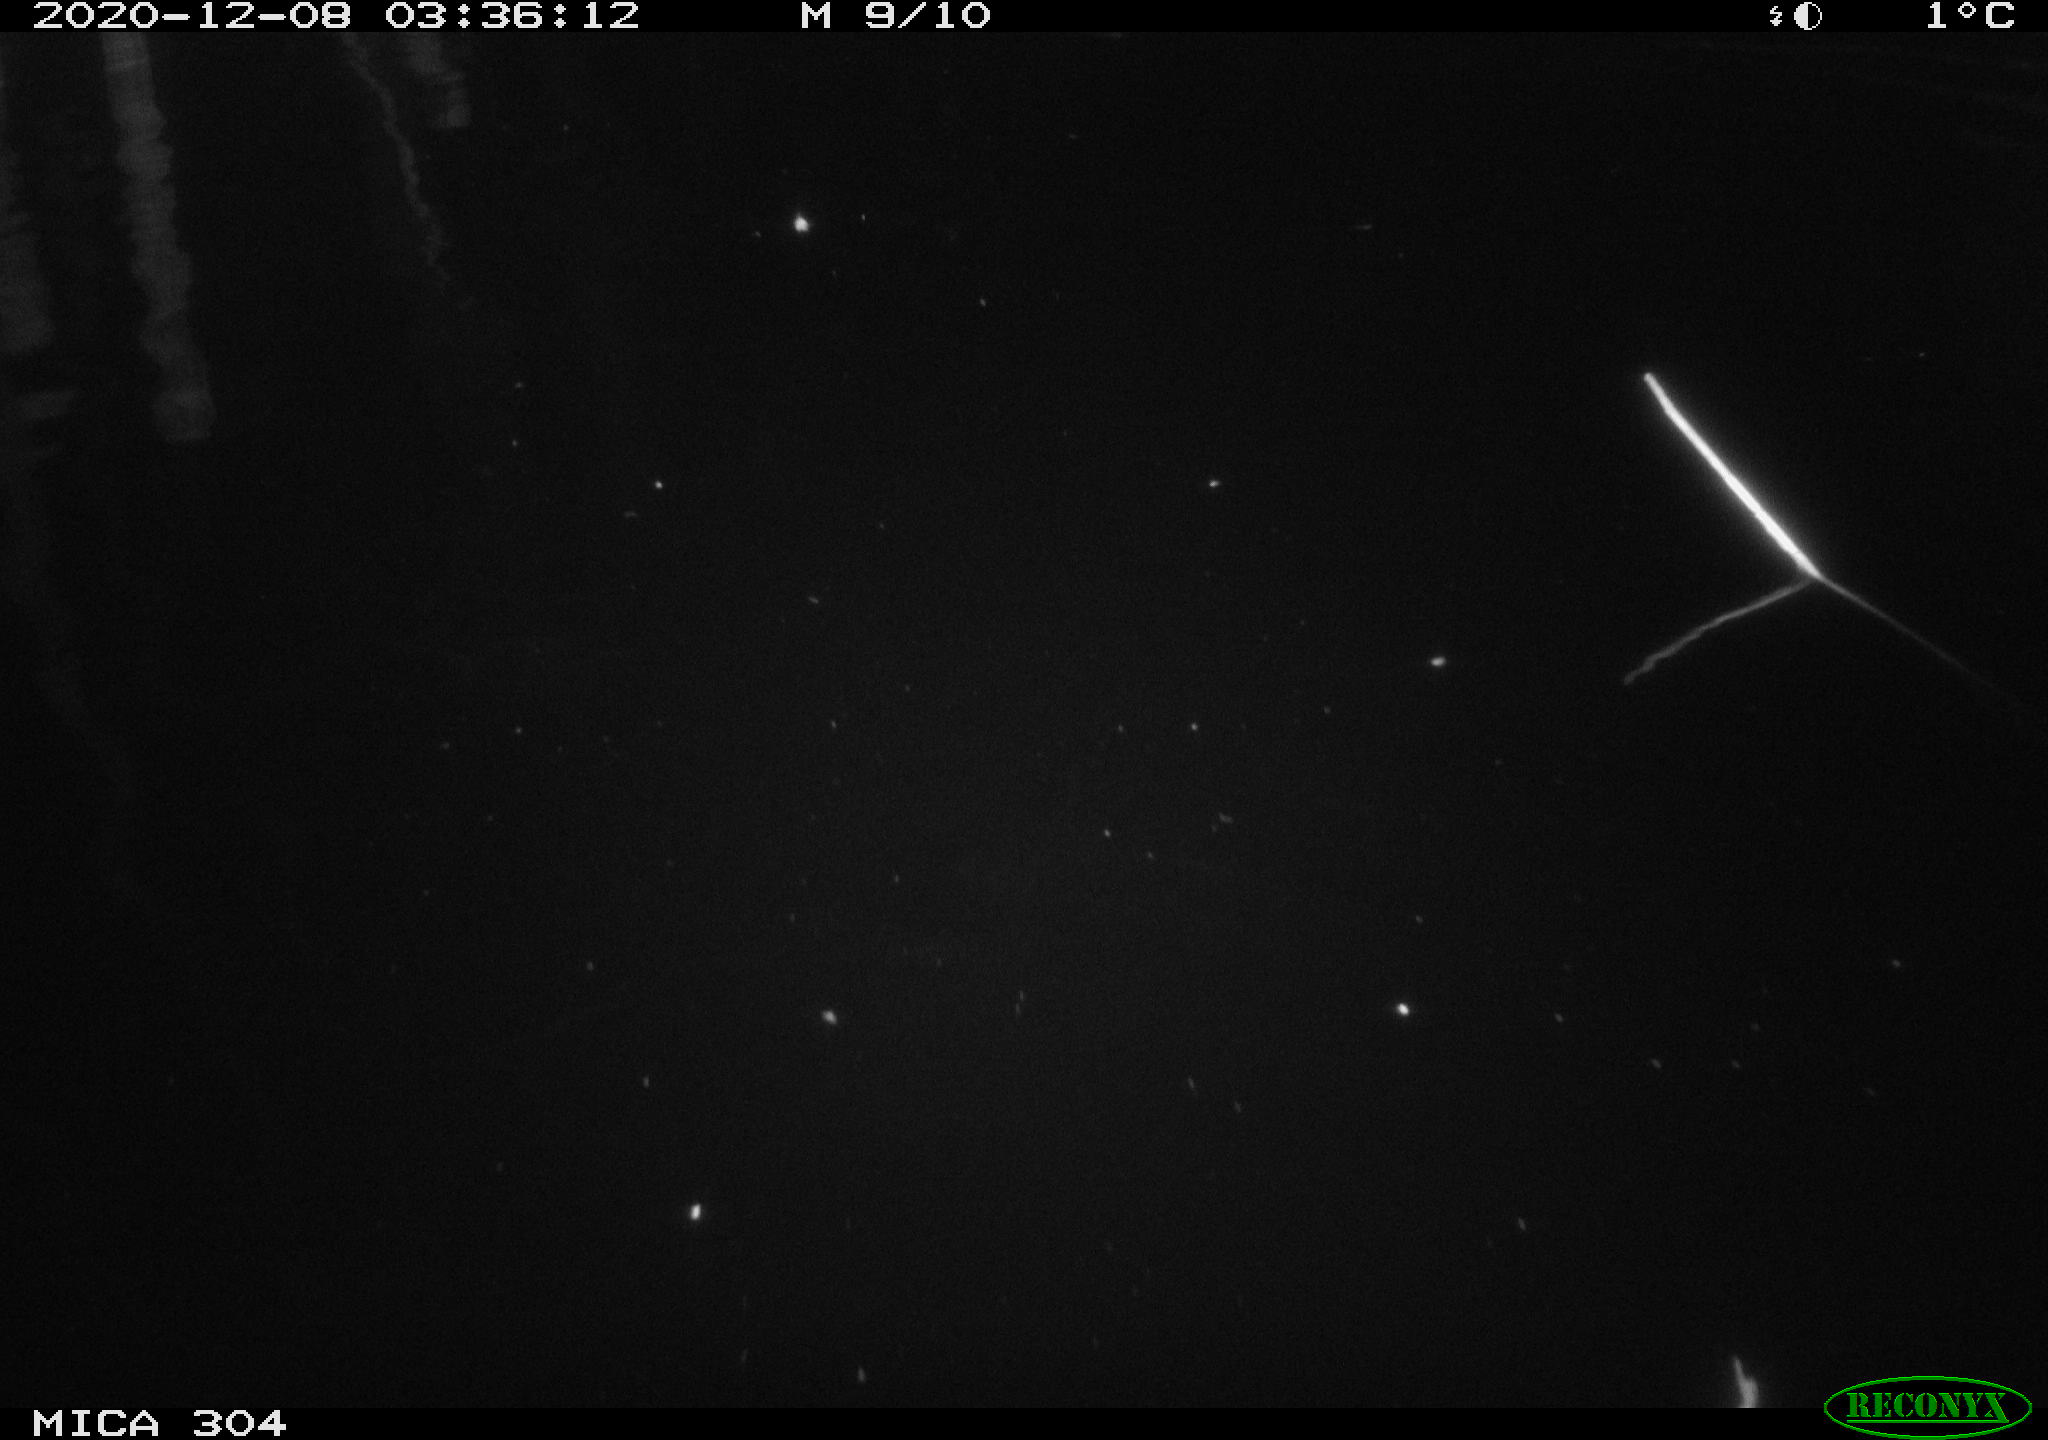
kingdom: Animalia
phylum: Chordata
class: Mammalia
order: Rodentia
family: Muridae
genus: Rattus
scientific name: Rattus norvegicus
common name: Brown rat
